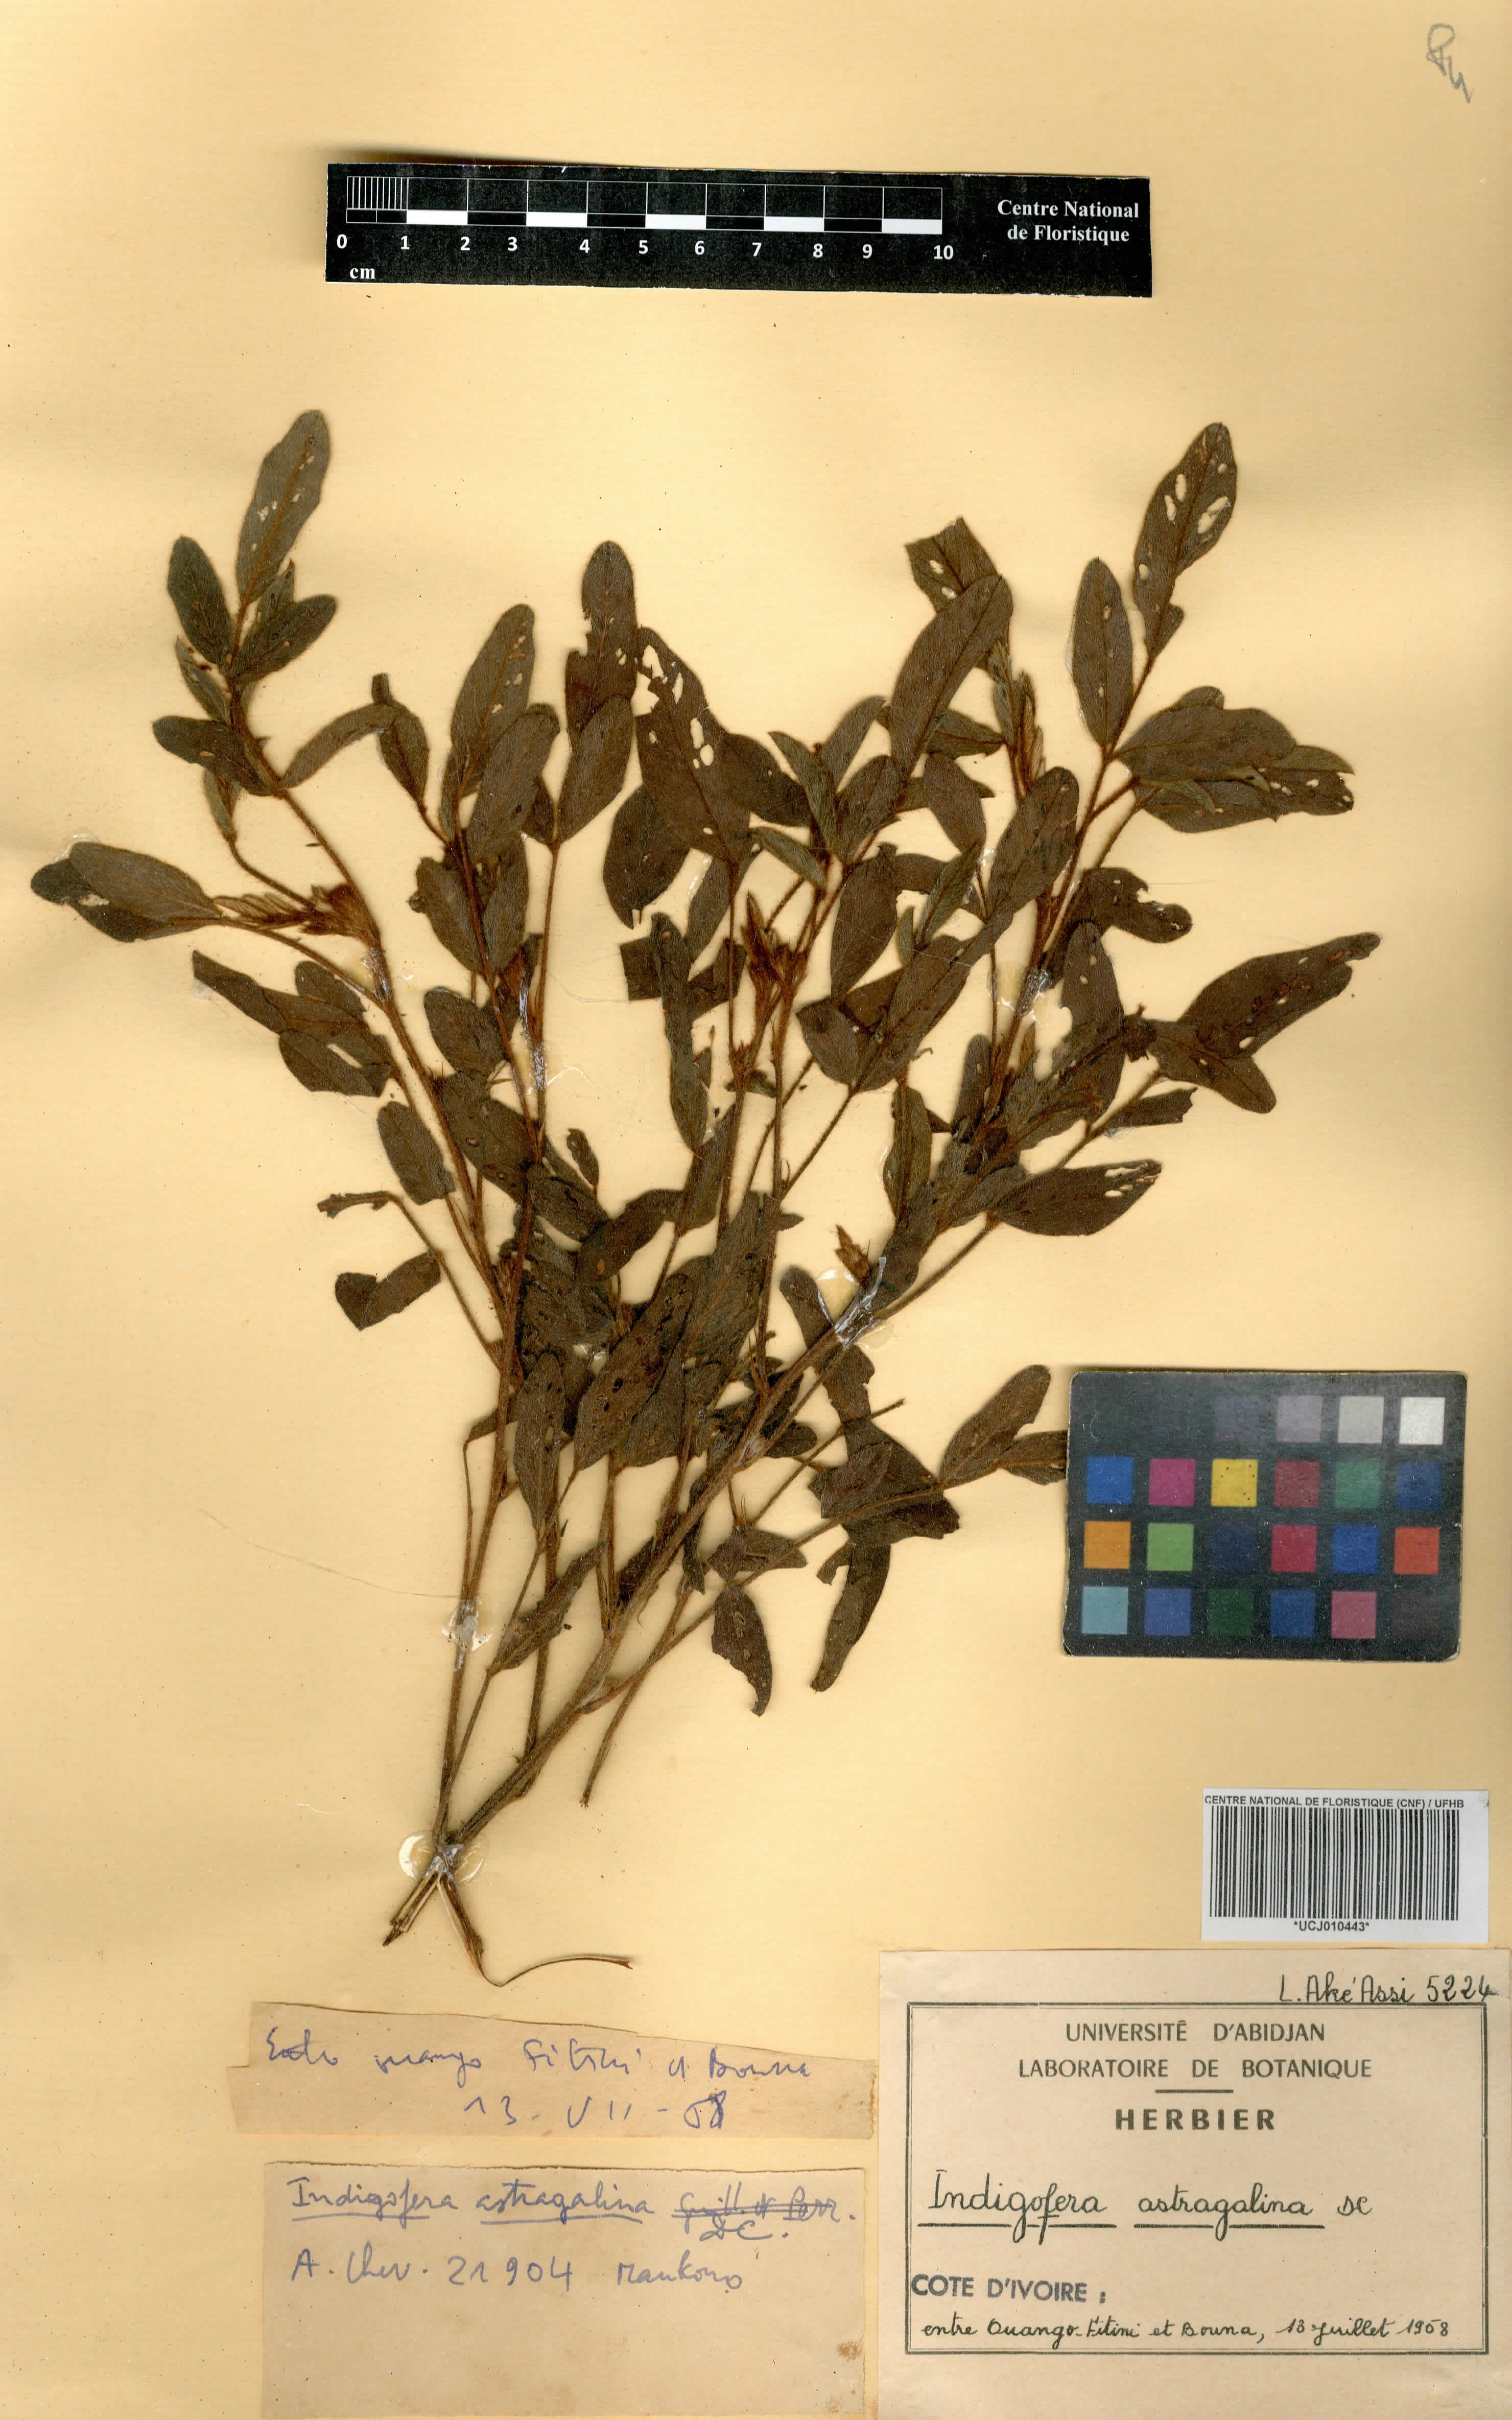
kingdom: Plantae
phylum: Tracheophyta
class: Magnoliopsida
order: Fabales
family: Fabaceae
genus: Indigofera
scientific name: Indigofera astragalina
